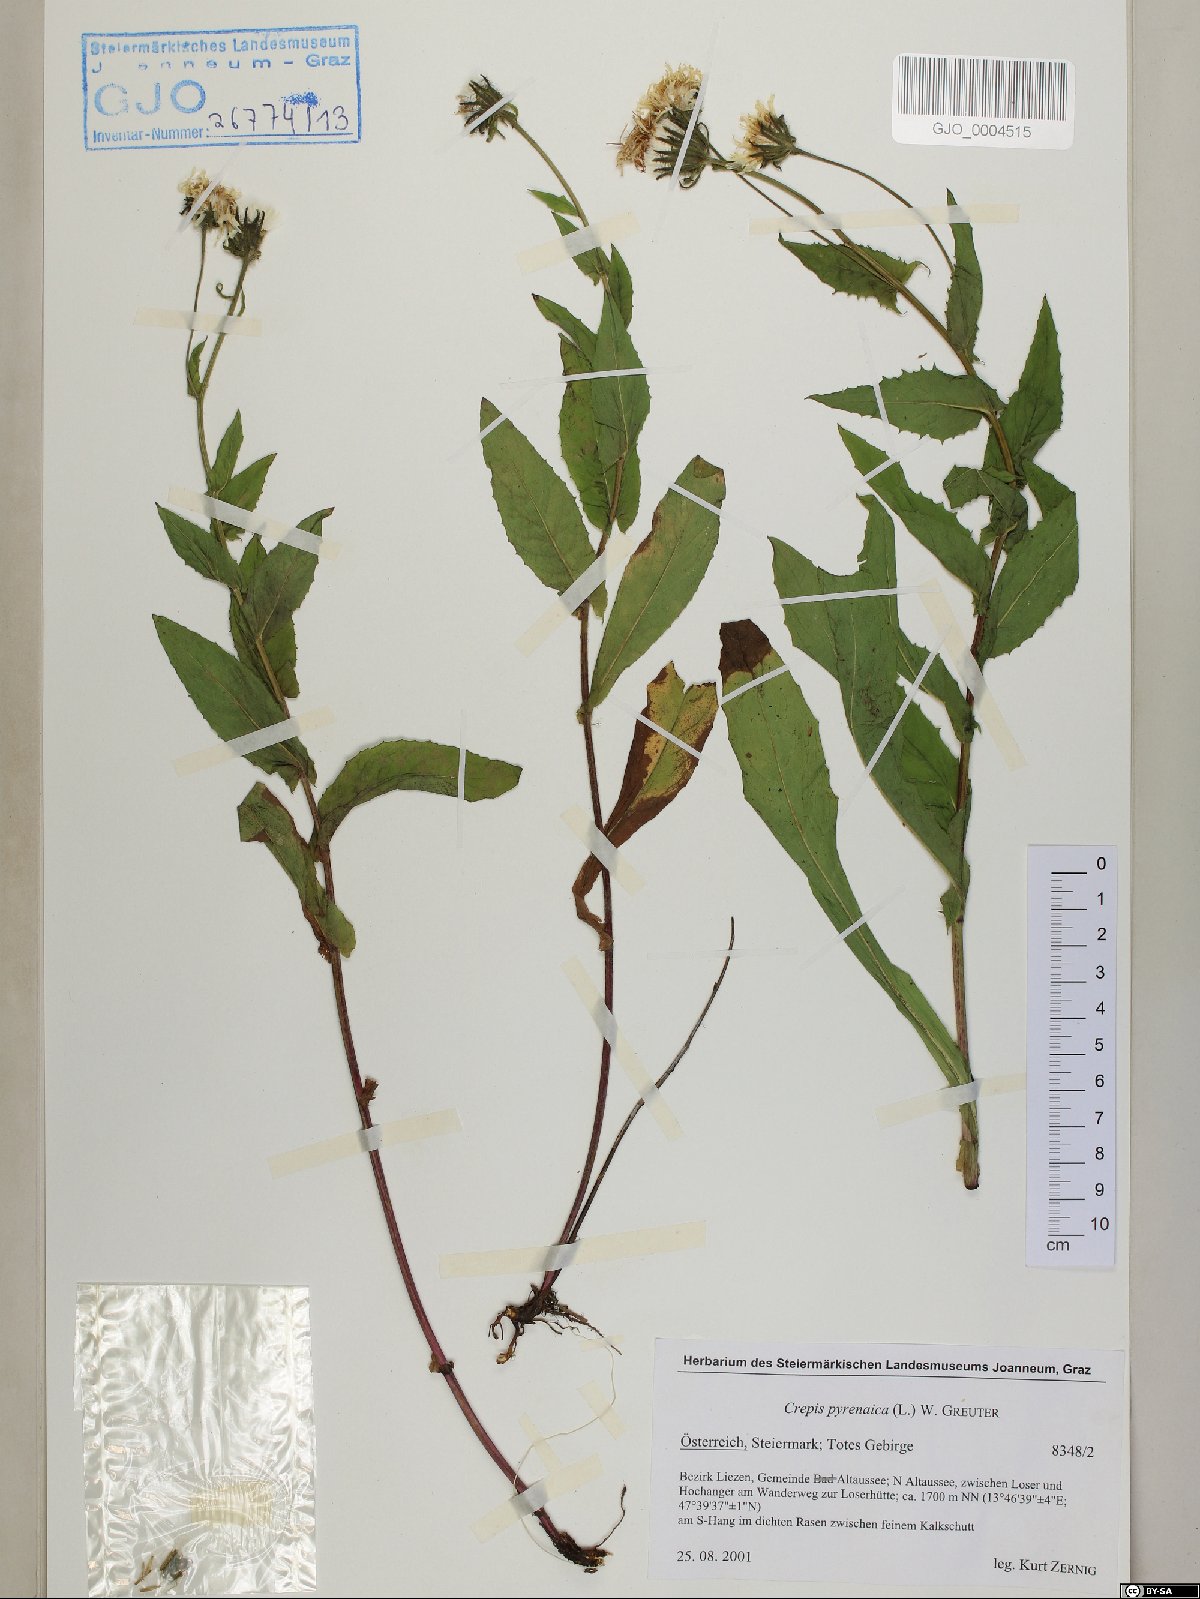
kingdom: Plantae
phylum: Tracheophyta
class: Magnoliopsida
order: Asterales
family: Asteraceae
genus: Crepis
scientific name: Crepis pyrenaica
